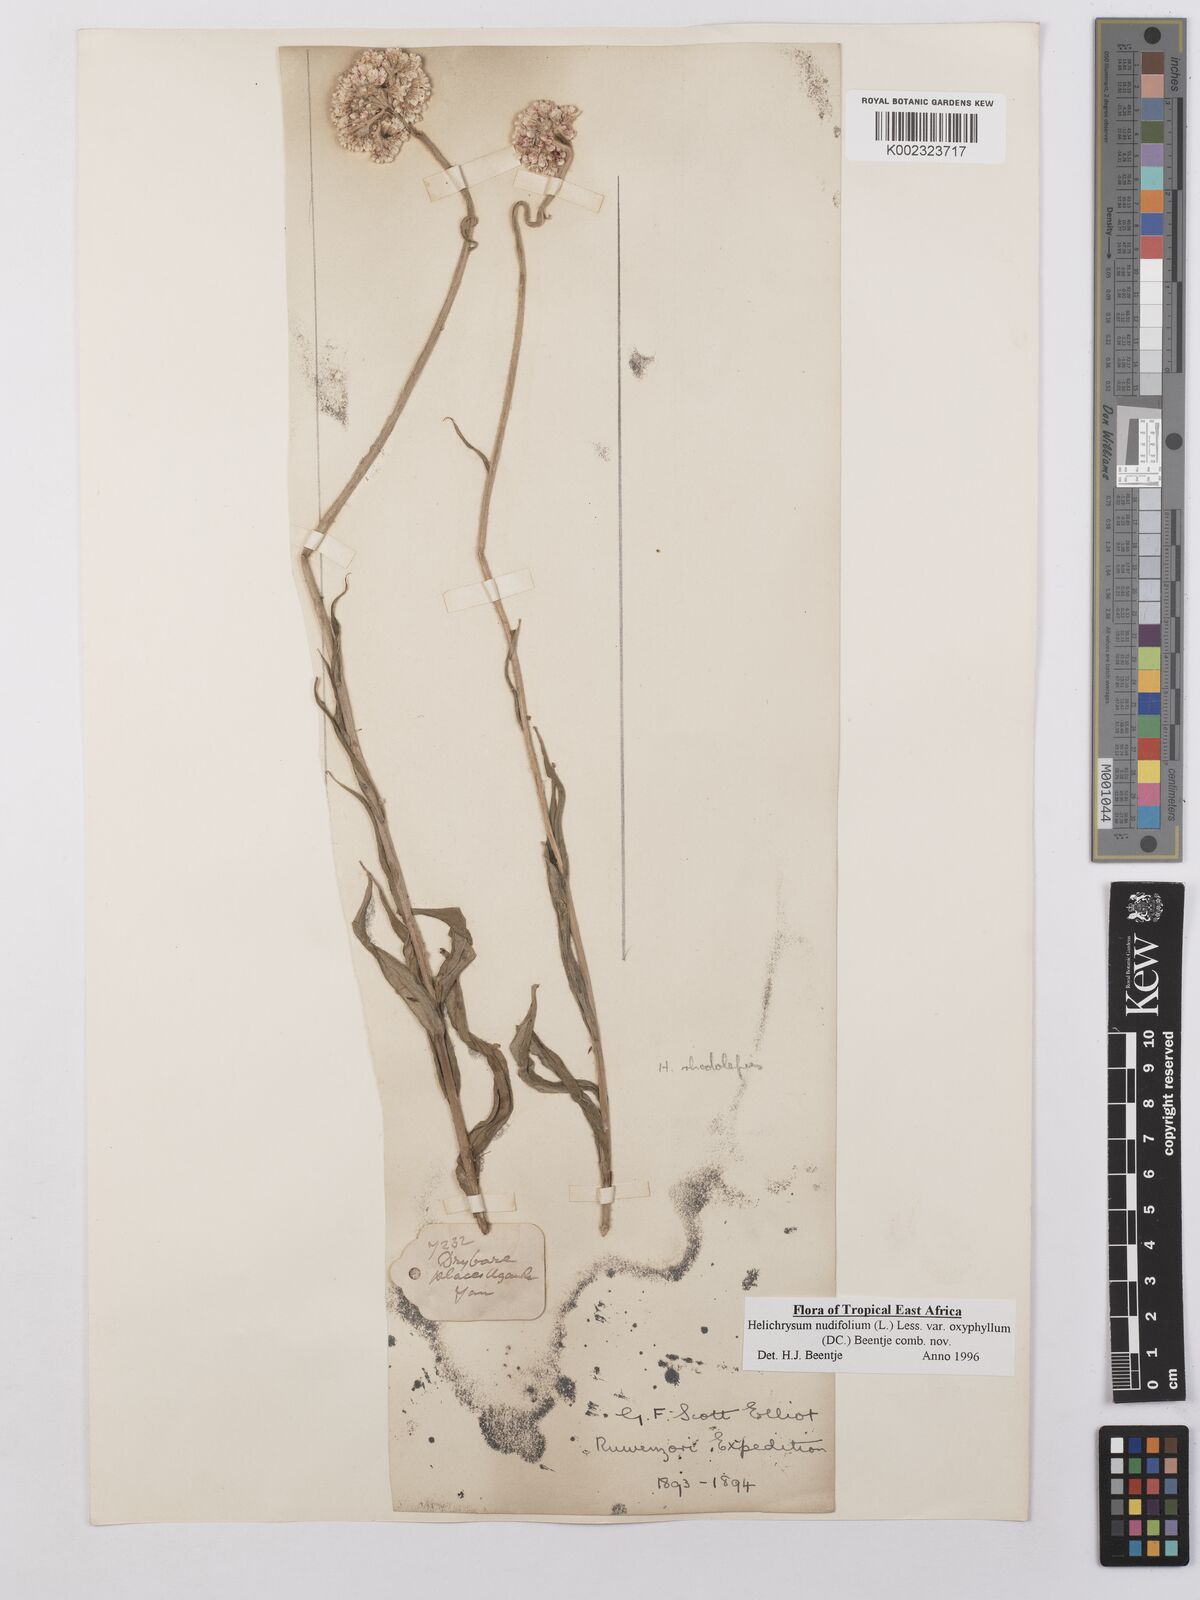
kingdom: Plantae
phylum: Tracheophyta
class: Magnoliopsida
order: Asterales
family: Asteraceae
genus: Helichrysum
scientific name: Helichrysum nudifolium
